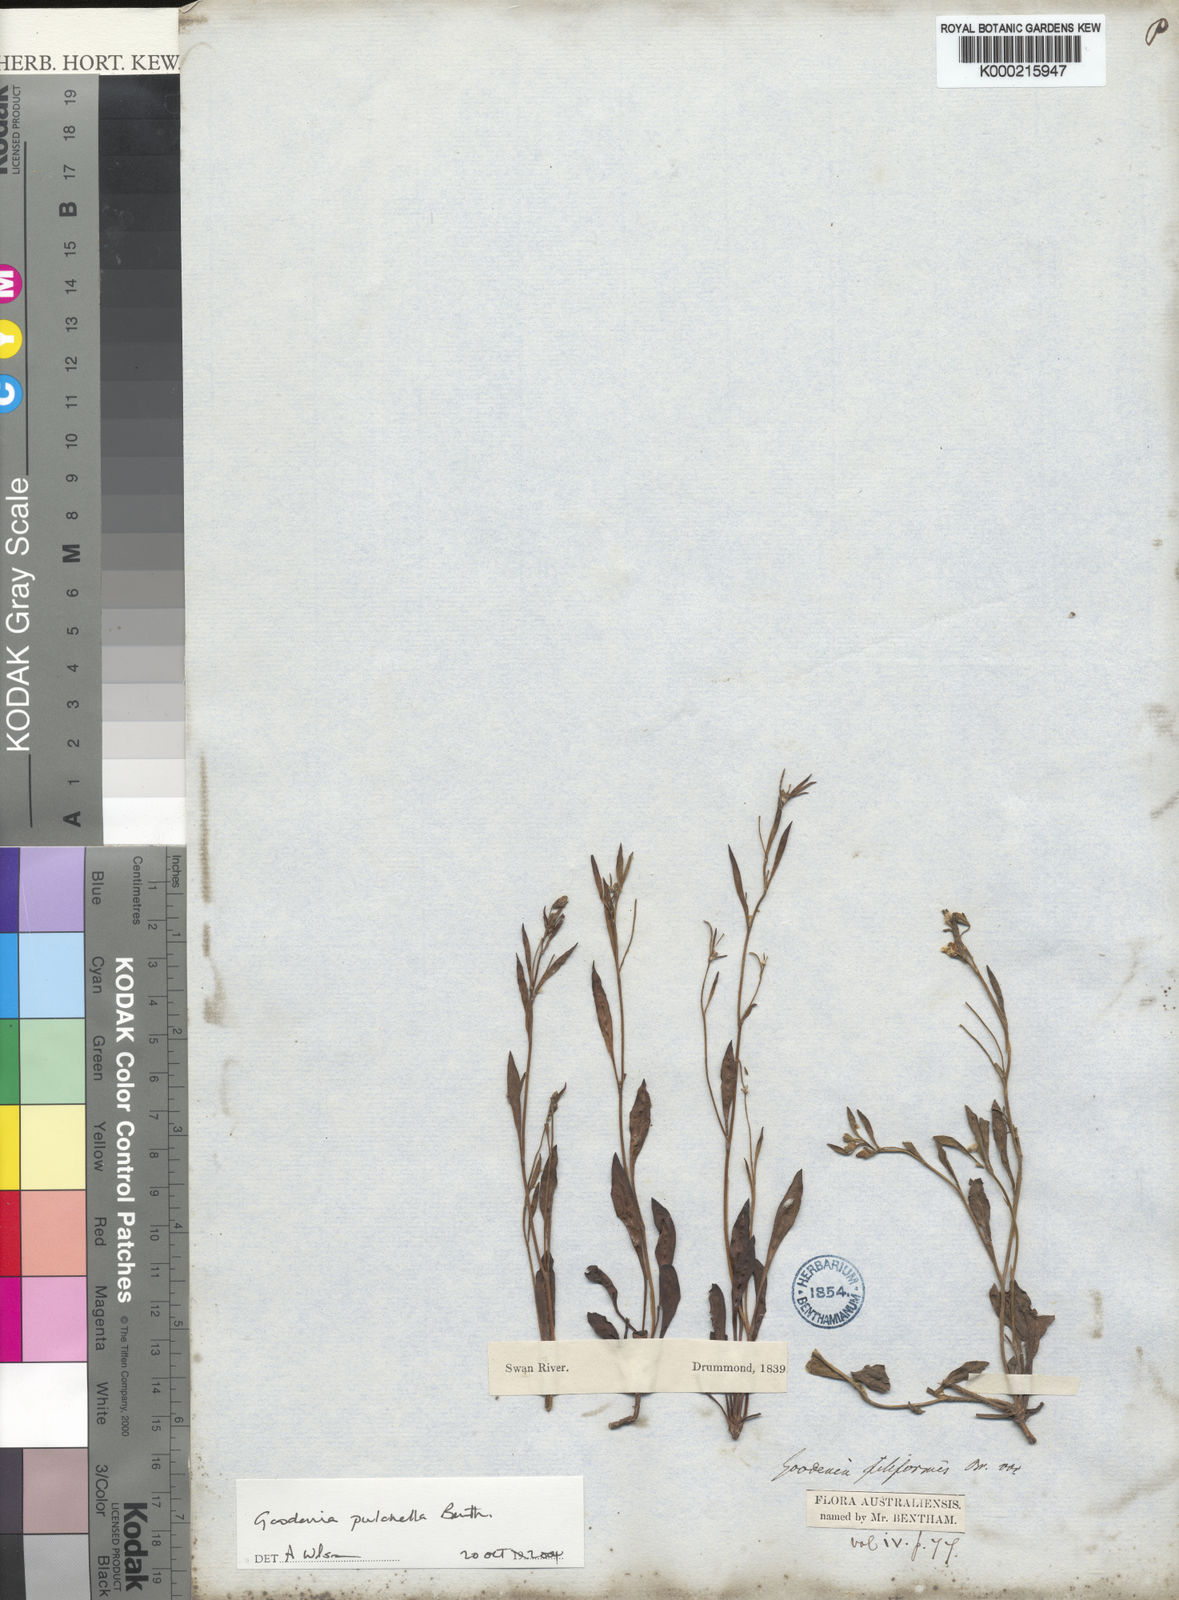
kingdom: Plantae
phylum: Tracheophyta
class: Magnoliopsida
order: Asterales
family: Goodeniaceae
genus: Goodenia
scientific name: Goodenia pulchella
